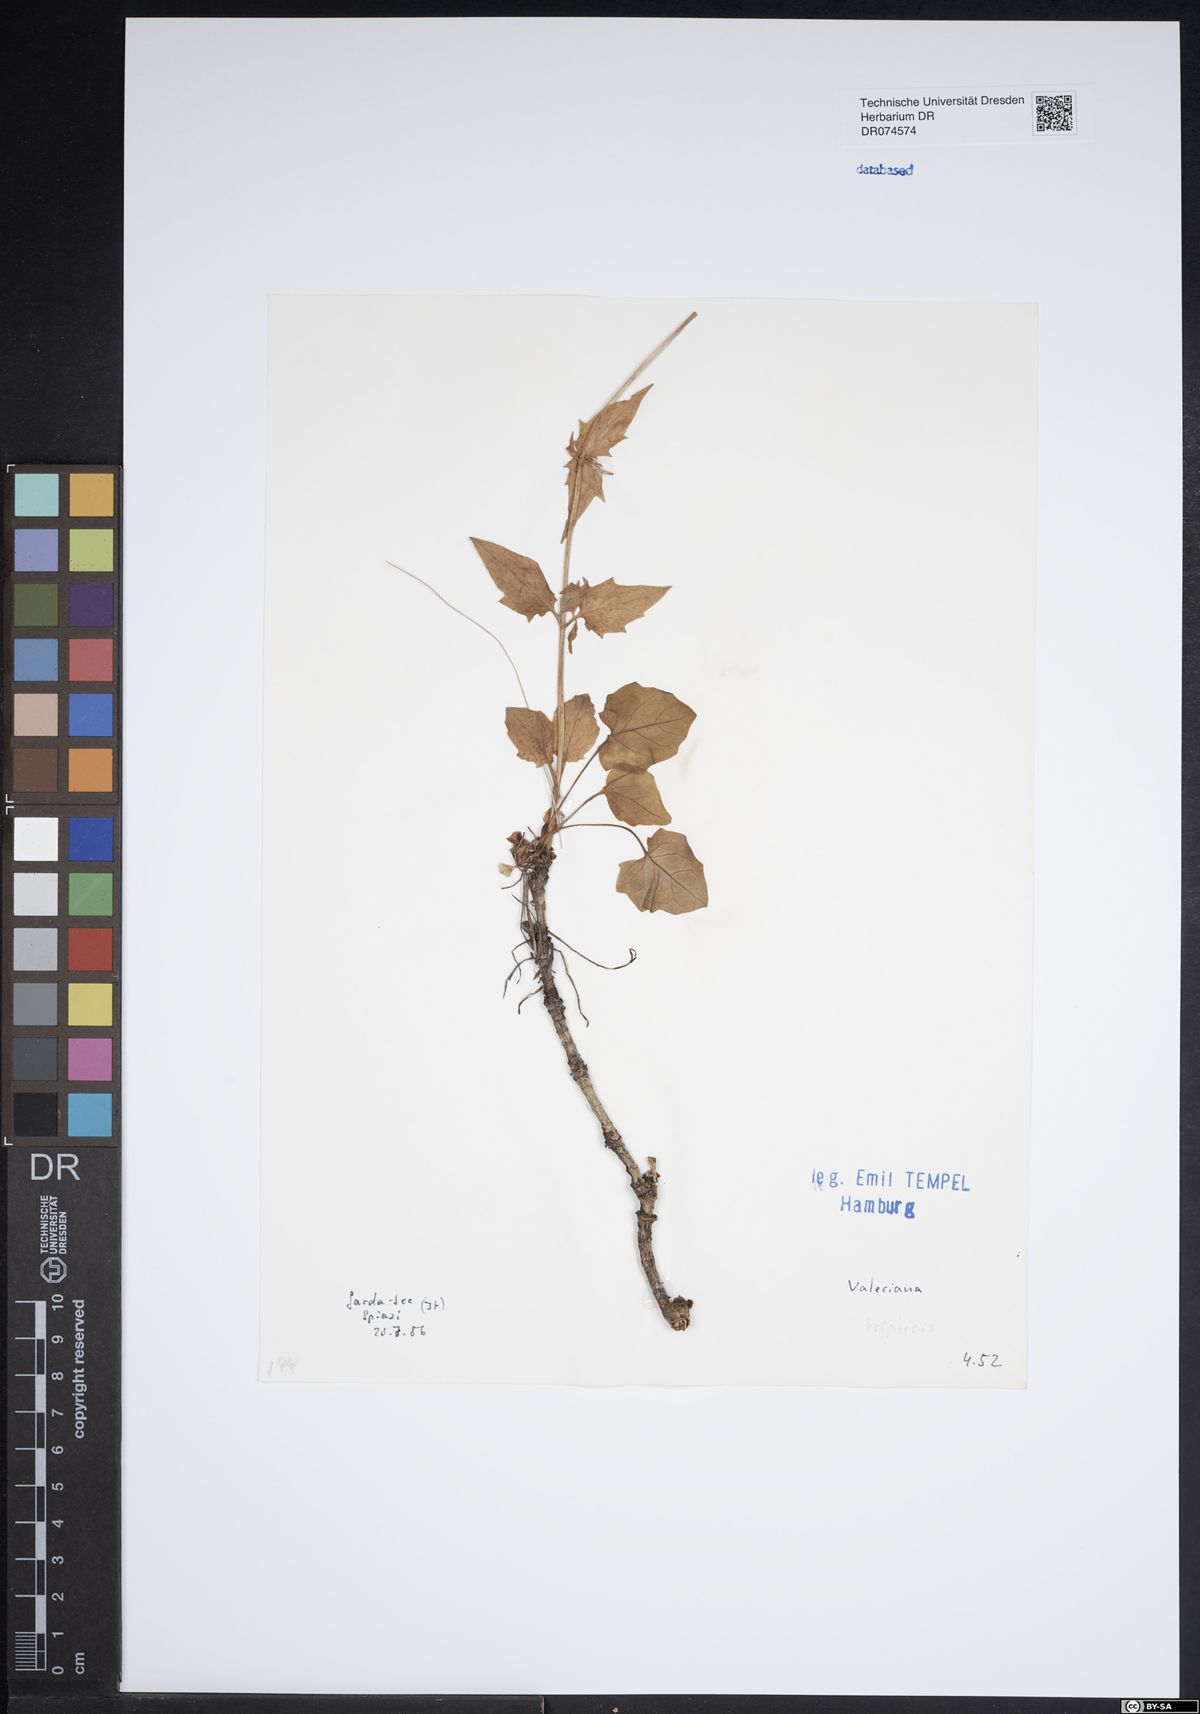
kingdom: Plantae
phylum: Tracheophyta
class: Magnoliopsida
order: Dipsacales
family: Caprifoliaceae
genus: Valeriana
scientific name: Valeriana tripteris
